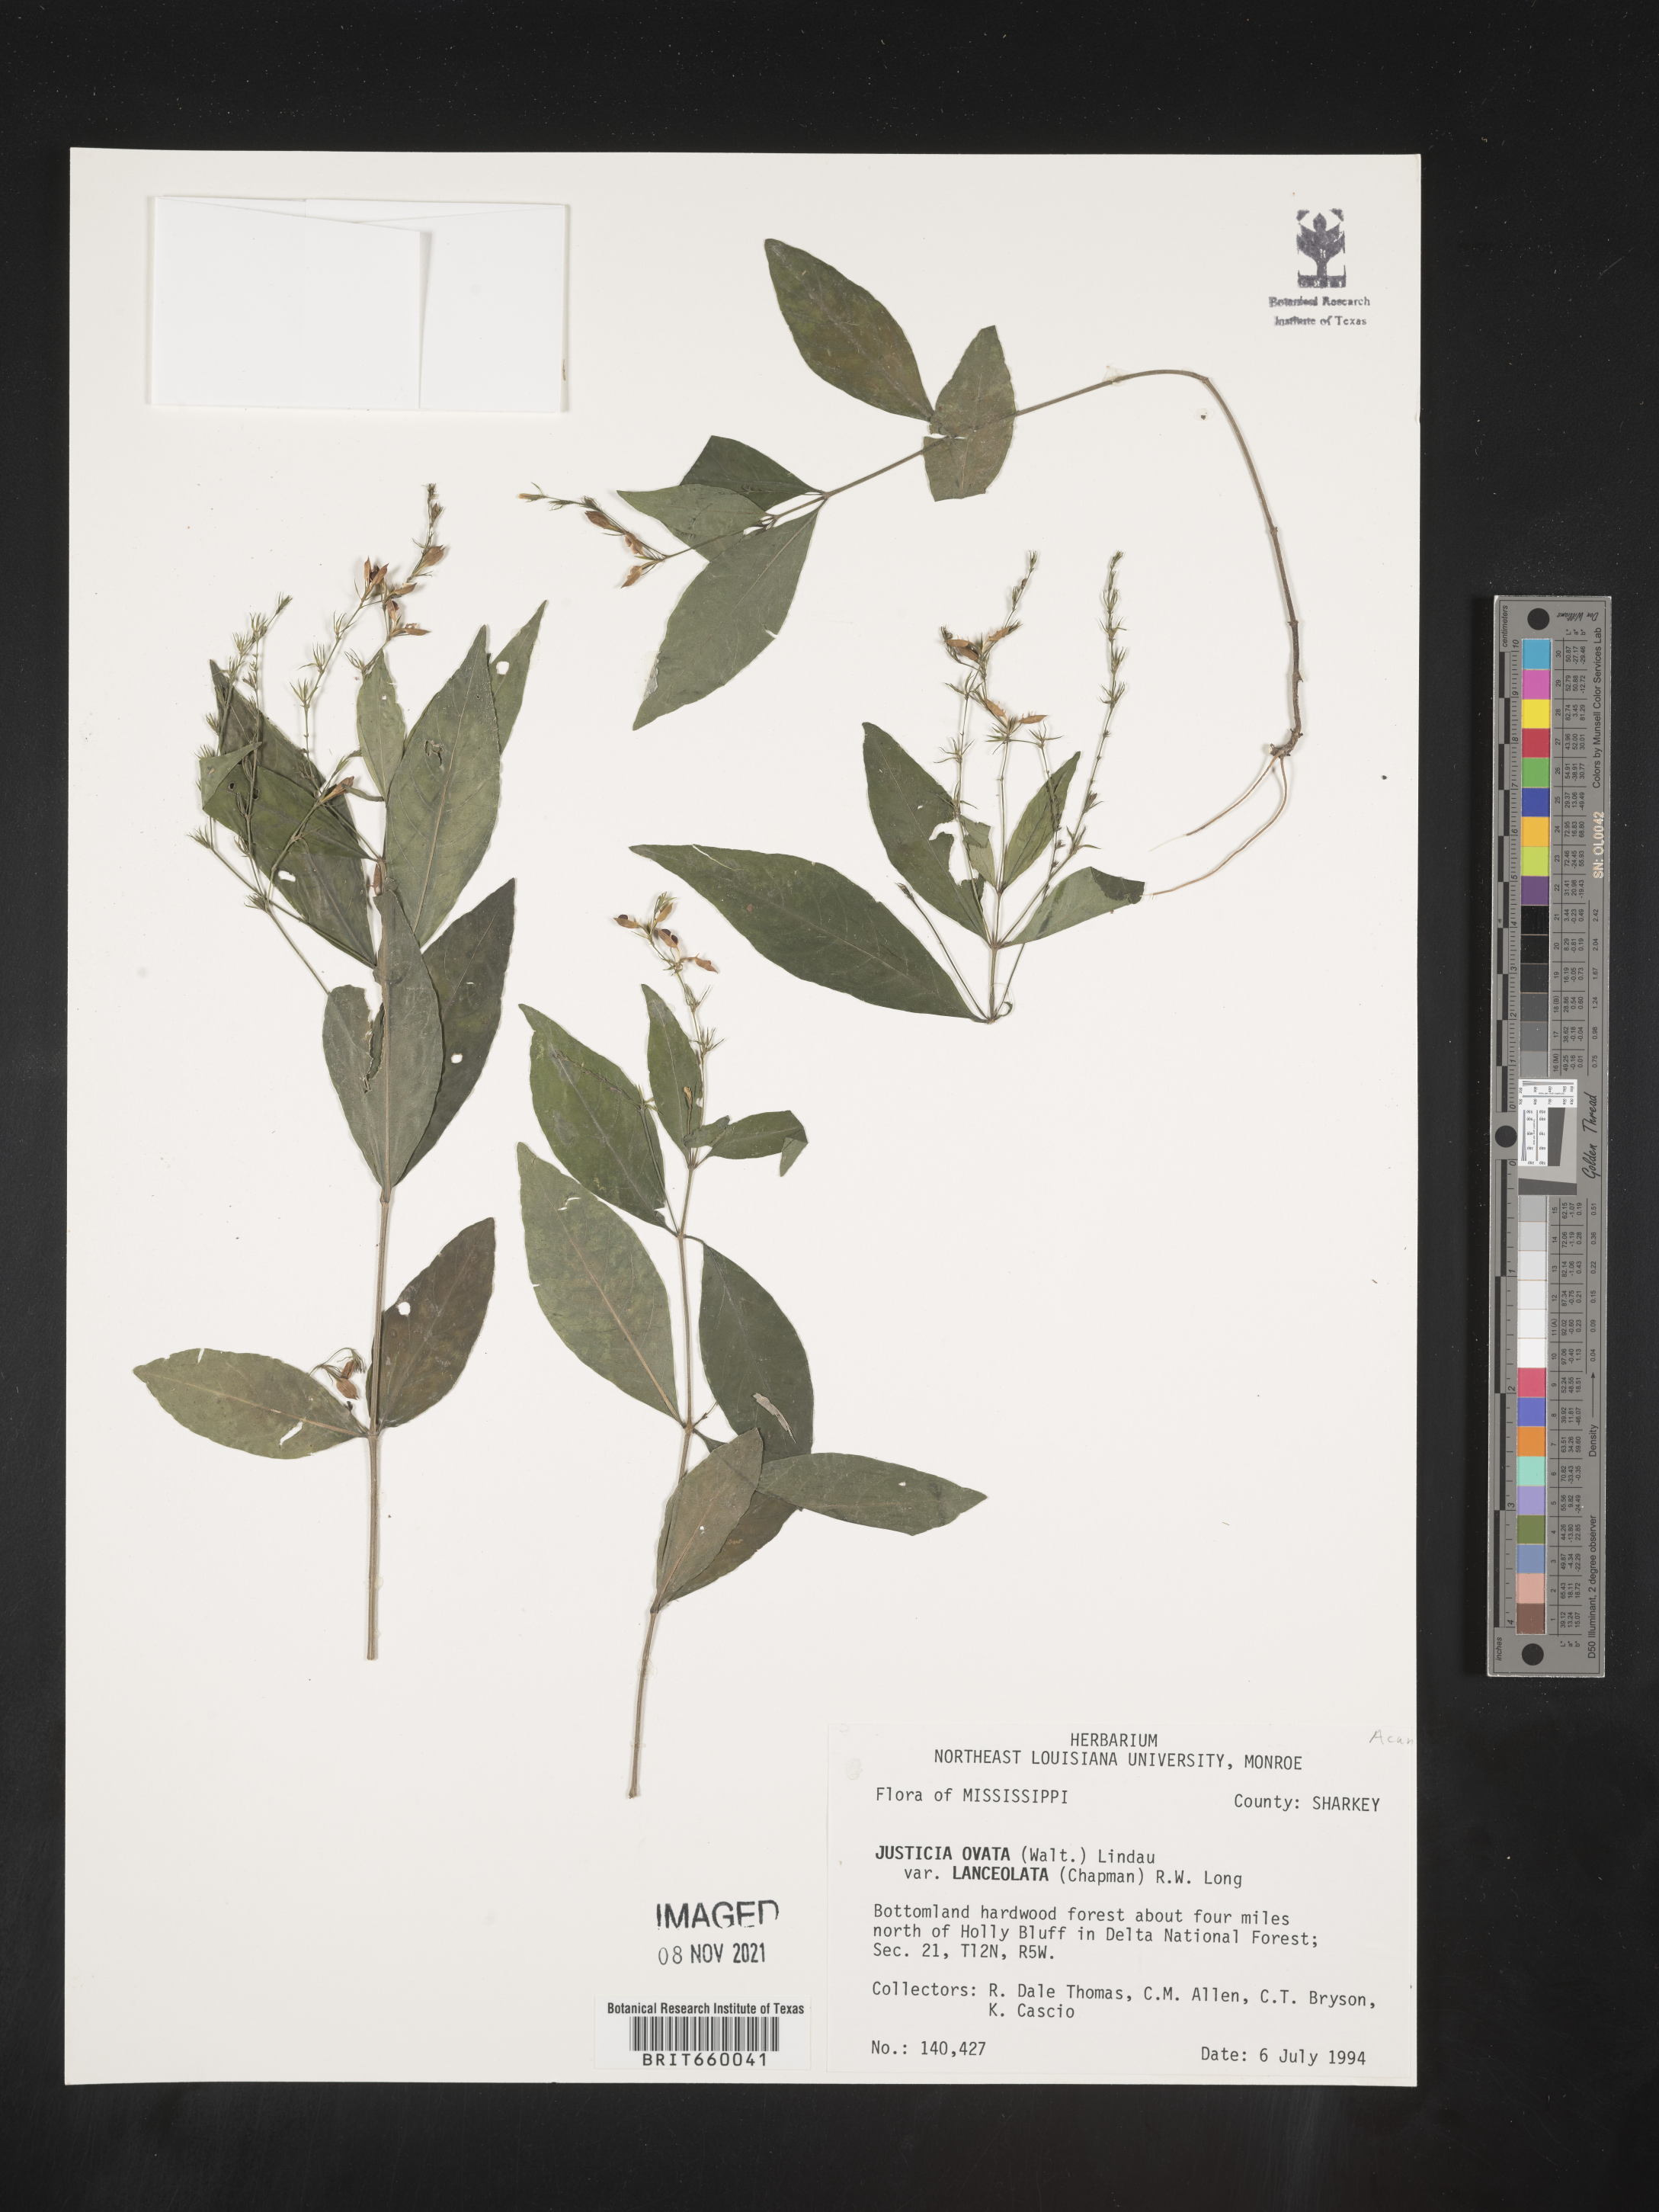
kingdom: Plantae
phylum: Tracheophyta
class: Magnoliopsida
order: Lamiales
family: Acanthaceae
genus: Justicia
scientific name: Justicia lanceolata
